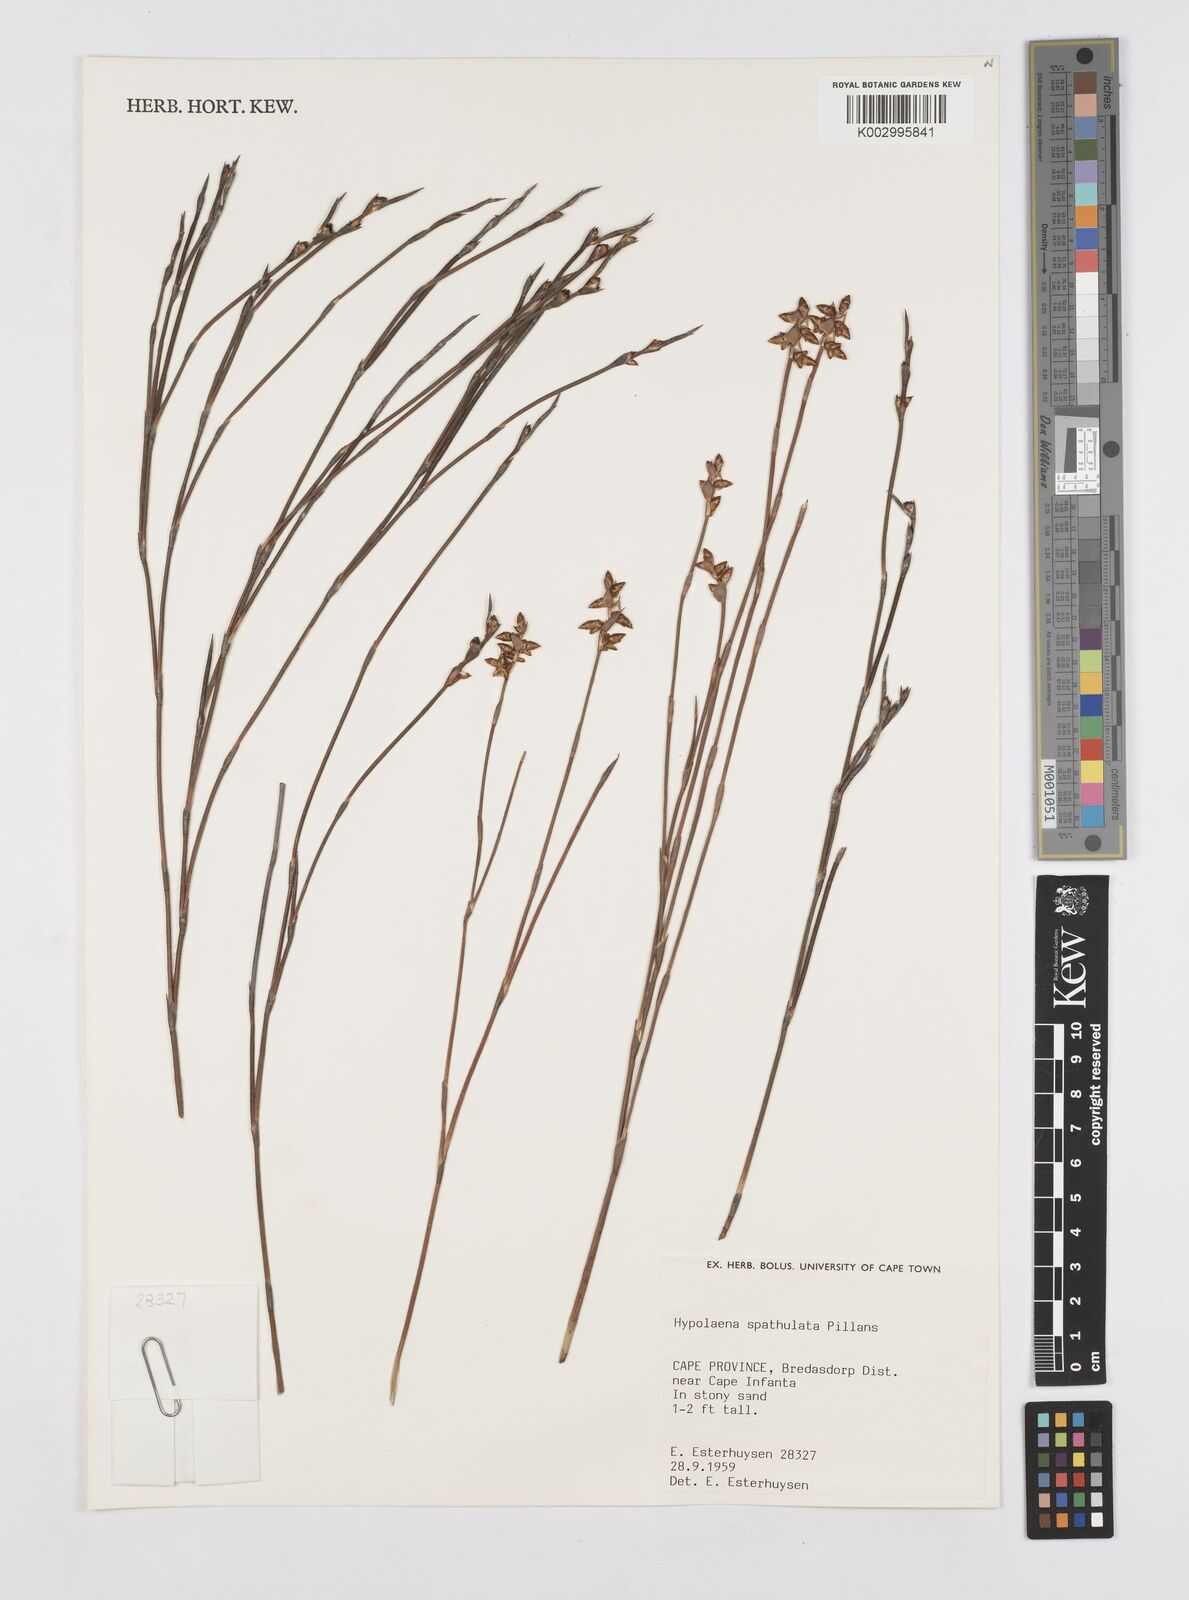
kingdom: Plantae
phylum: Tracheophyta
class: Liliopsida
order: Poales
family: Restionaceae
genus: Mastersiella
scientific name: Mastersiella spathulata
